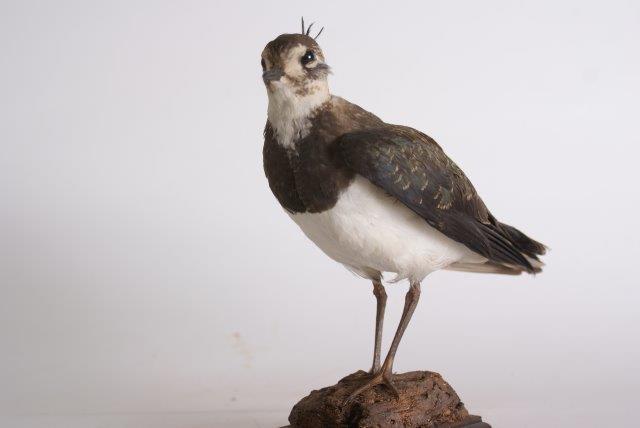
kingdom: Animalia
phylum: Chordata
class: Aves
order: Charadriiformes
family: Charadriidae
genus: Vanellus
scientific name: Vanellus vanellus
